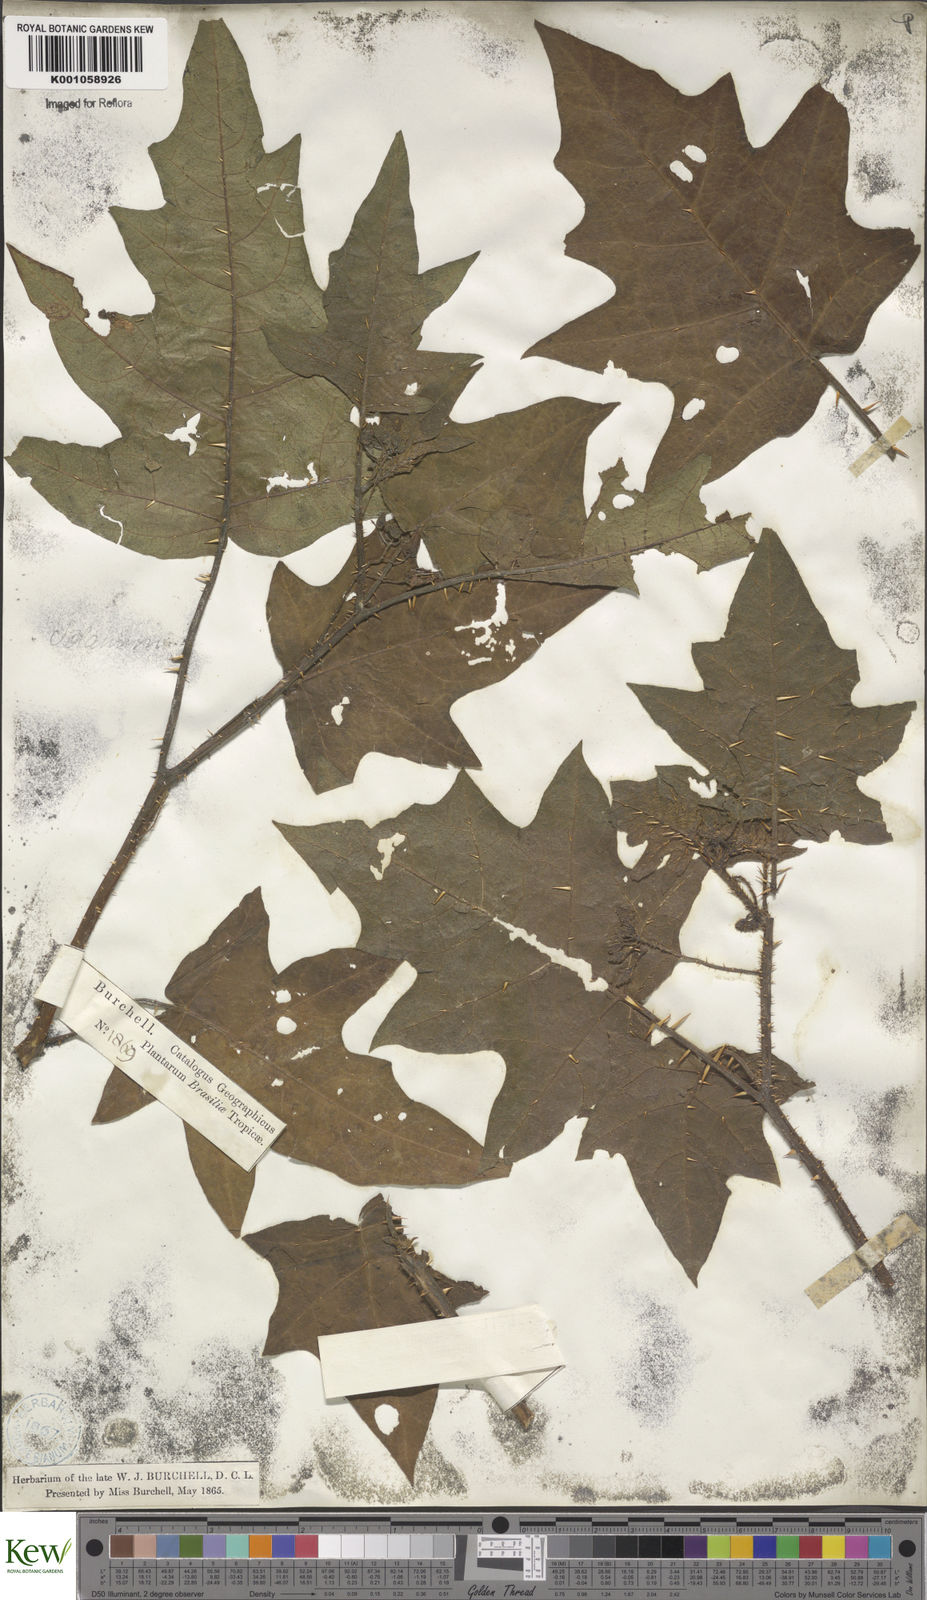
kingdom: Plantae
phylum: Tracheophyta
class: Magnoliopsida
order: Solanales
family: Solanaceae
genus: Solanum
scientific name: Solanum subinerme
